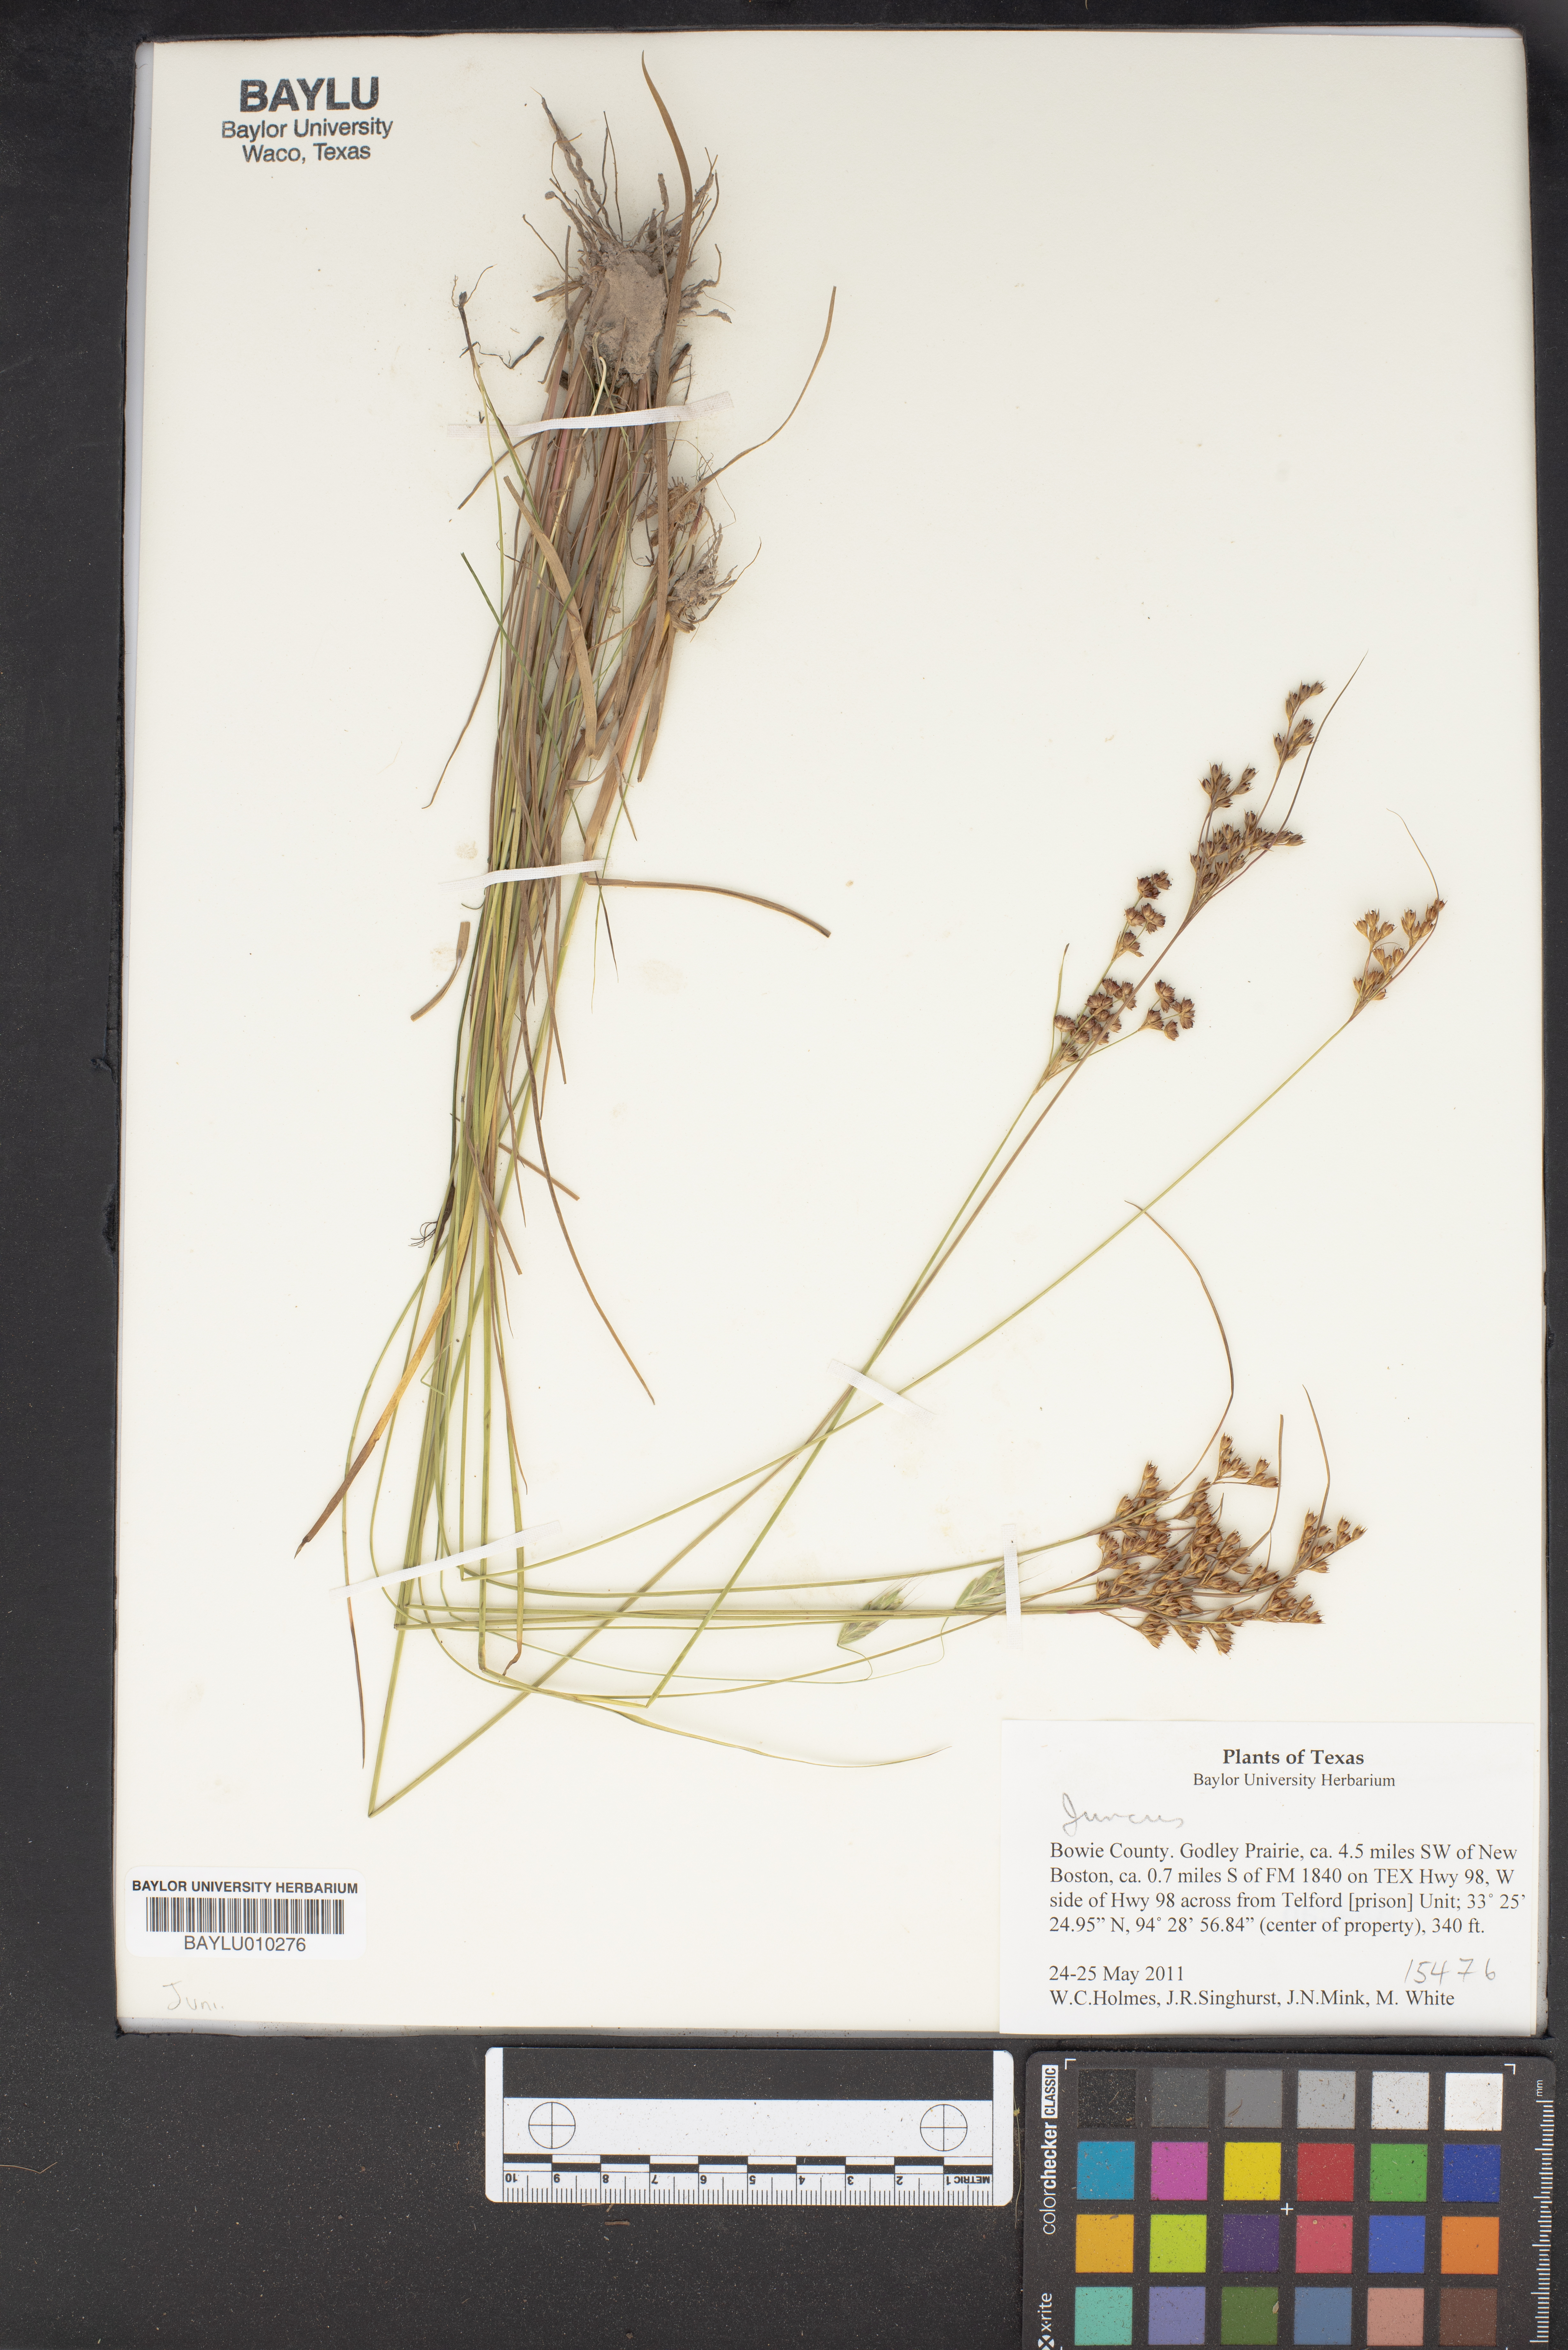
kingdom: Plantae
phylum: Tracheophyta
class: Liliopsida
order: Poales
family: Juncaceae
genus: Juncus
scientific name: Juncus
